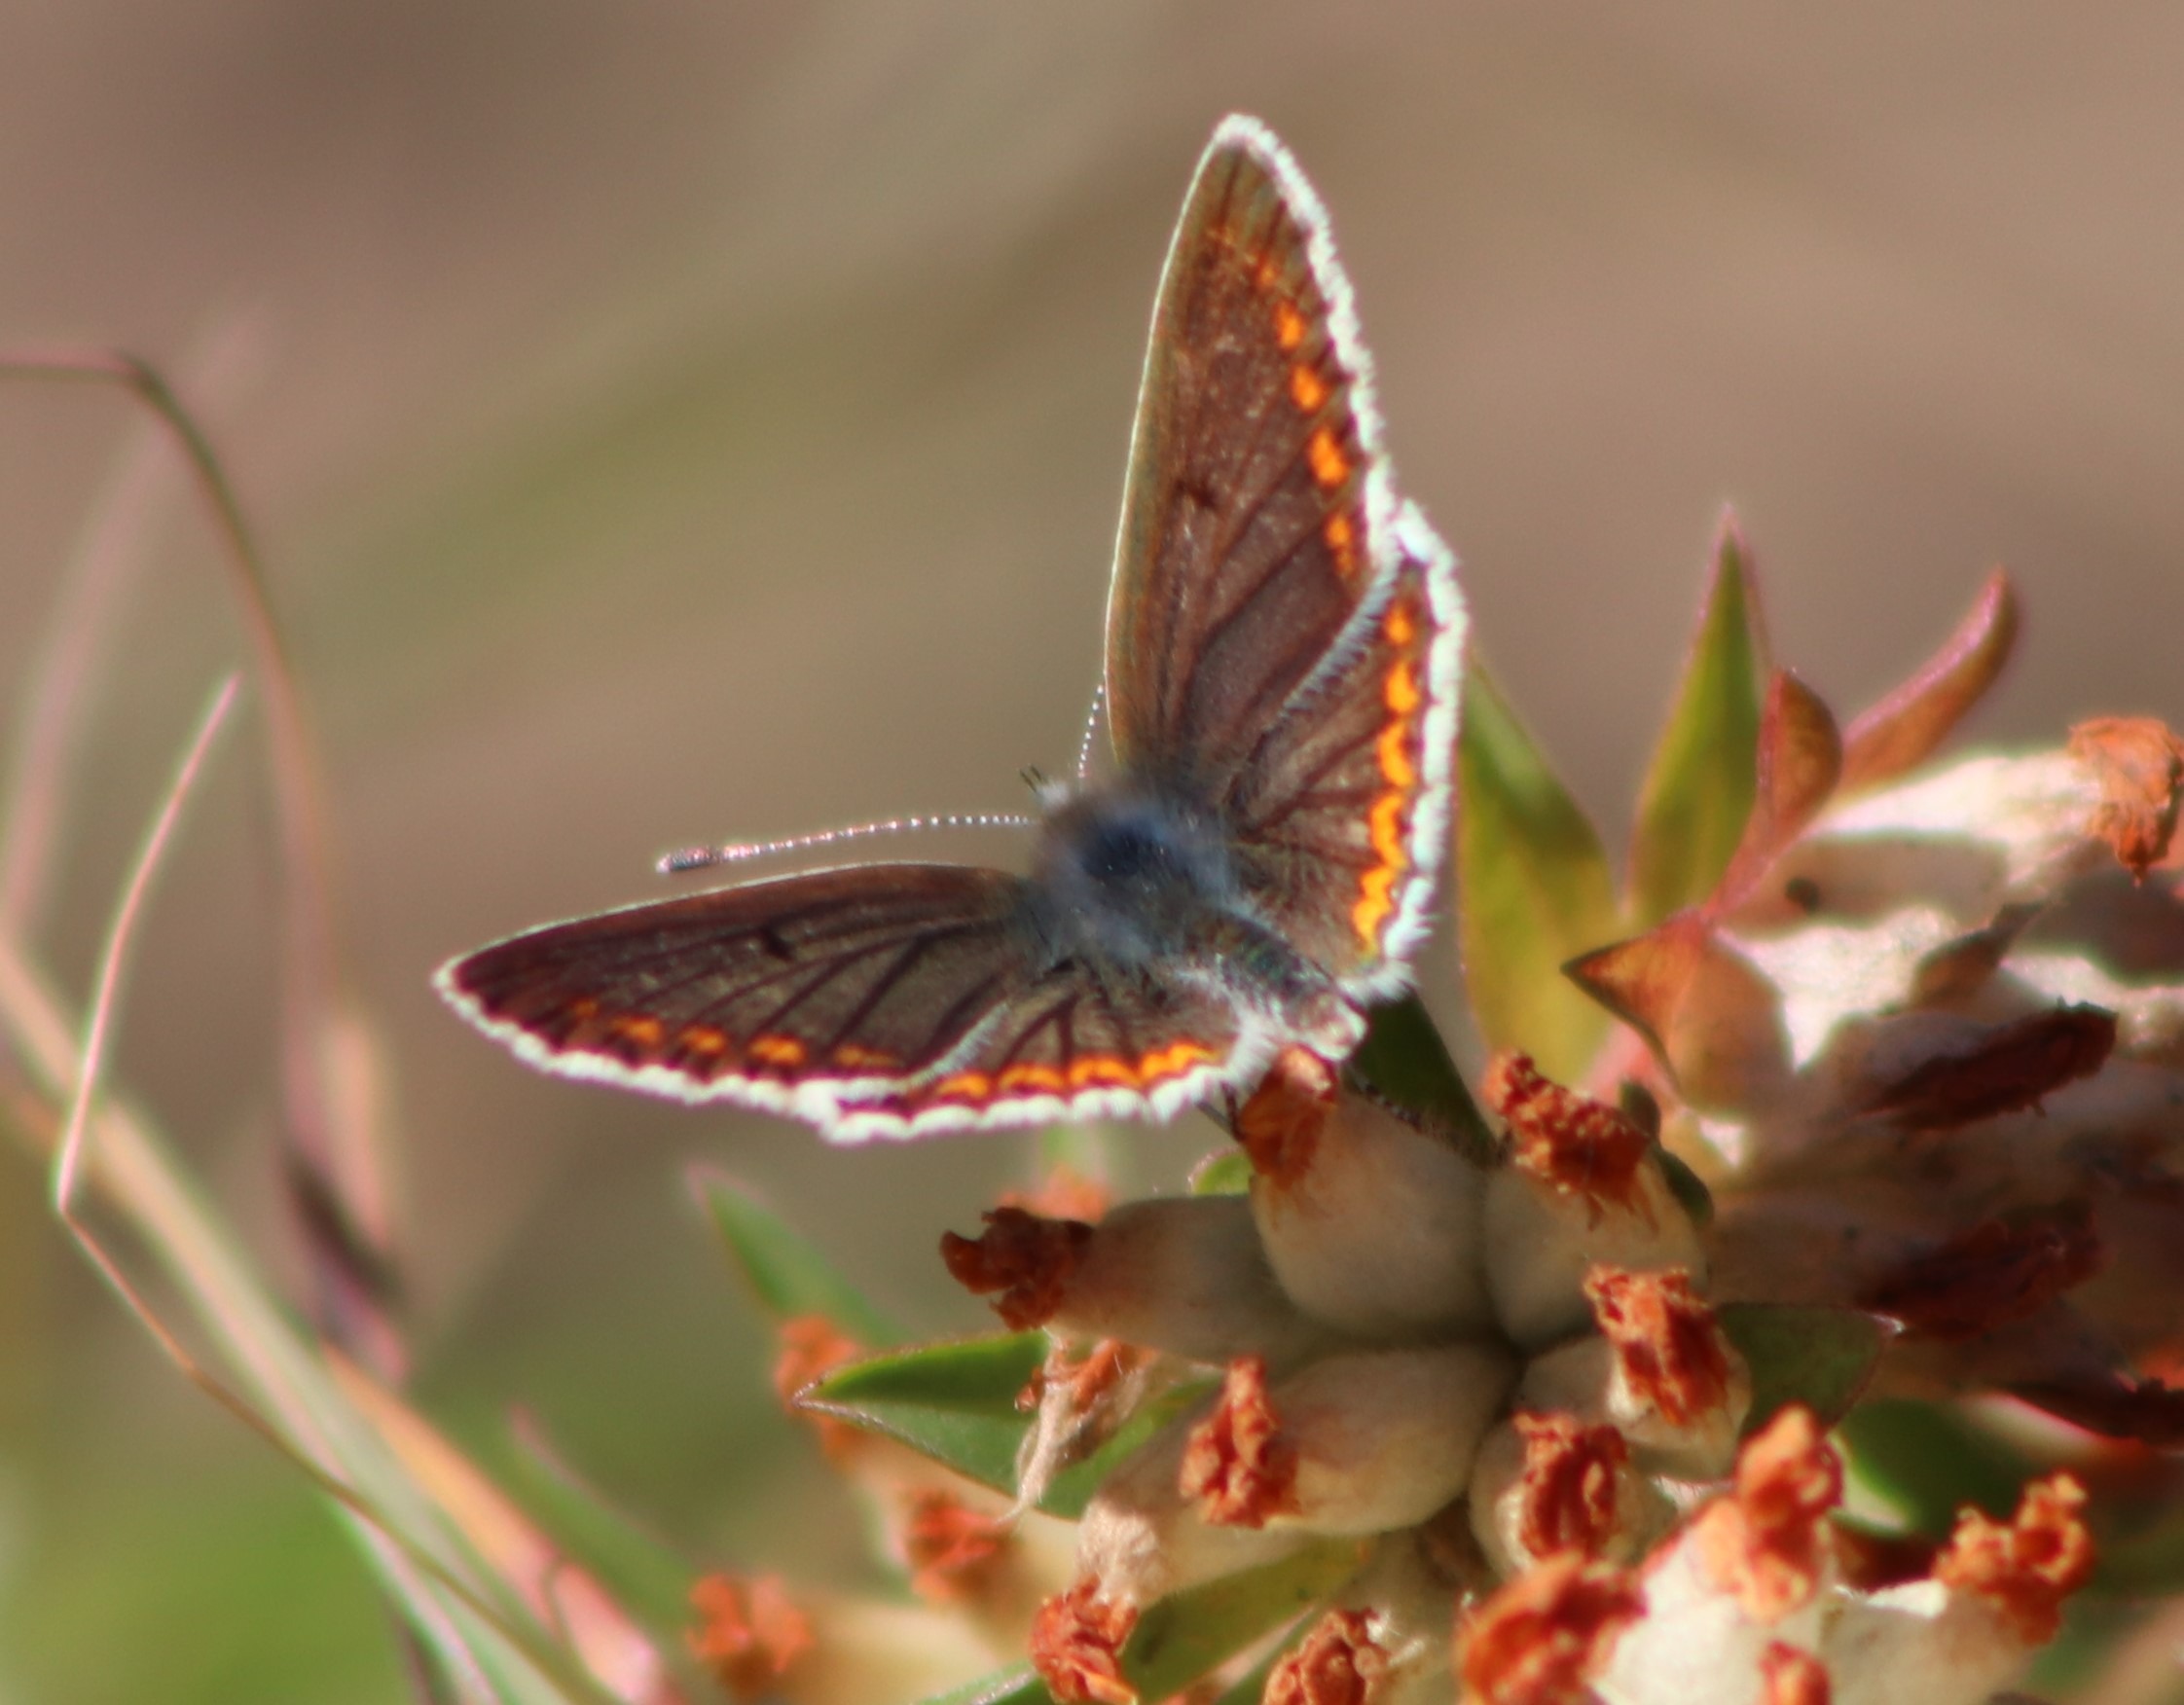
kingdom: Animalia
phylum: Arthropoda
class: Insecta
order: Lepidoptera
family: Lycaenidae
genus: Aricia
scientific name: Aricia agestis
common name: Rødplettet blåfugl
